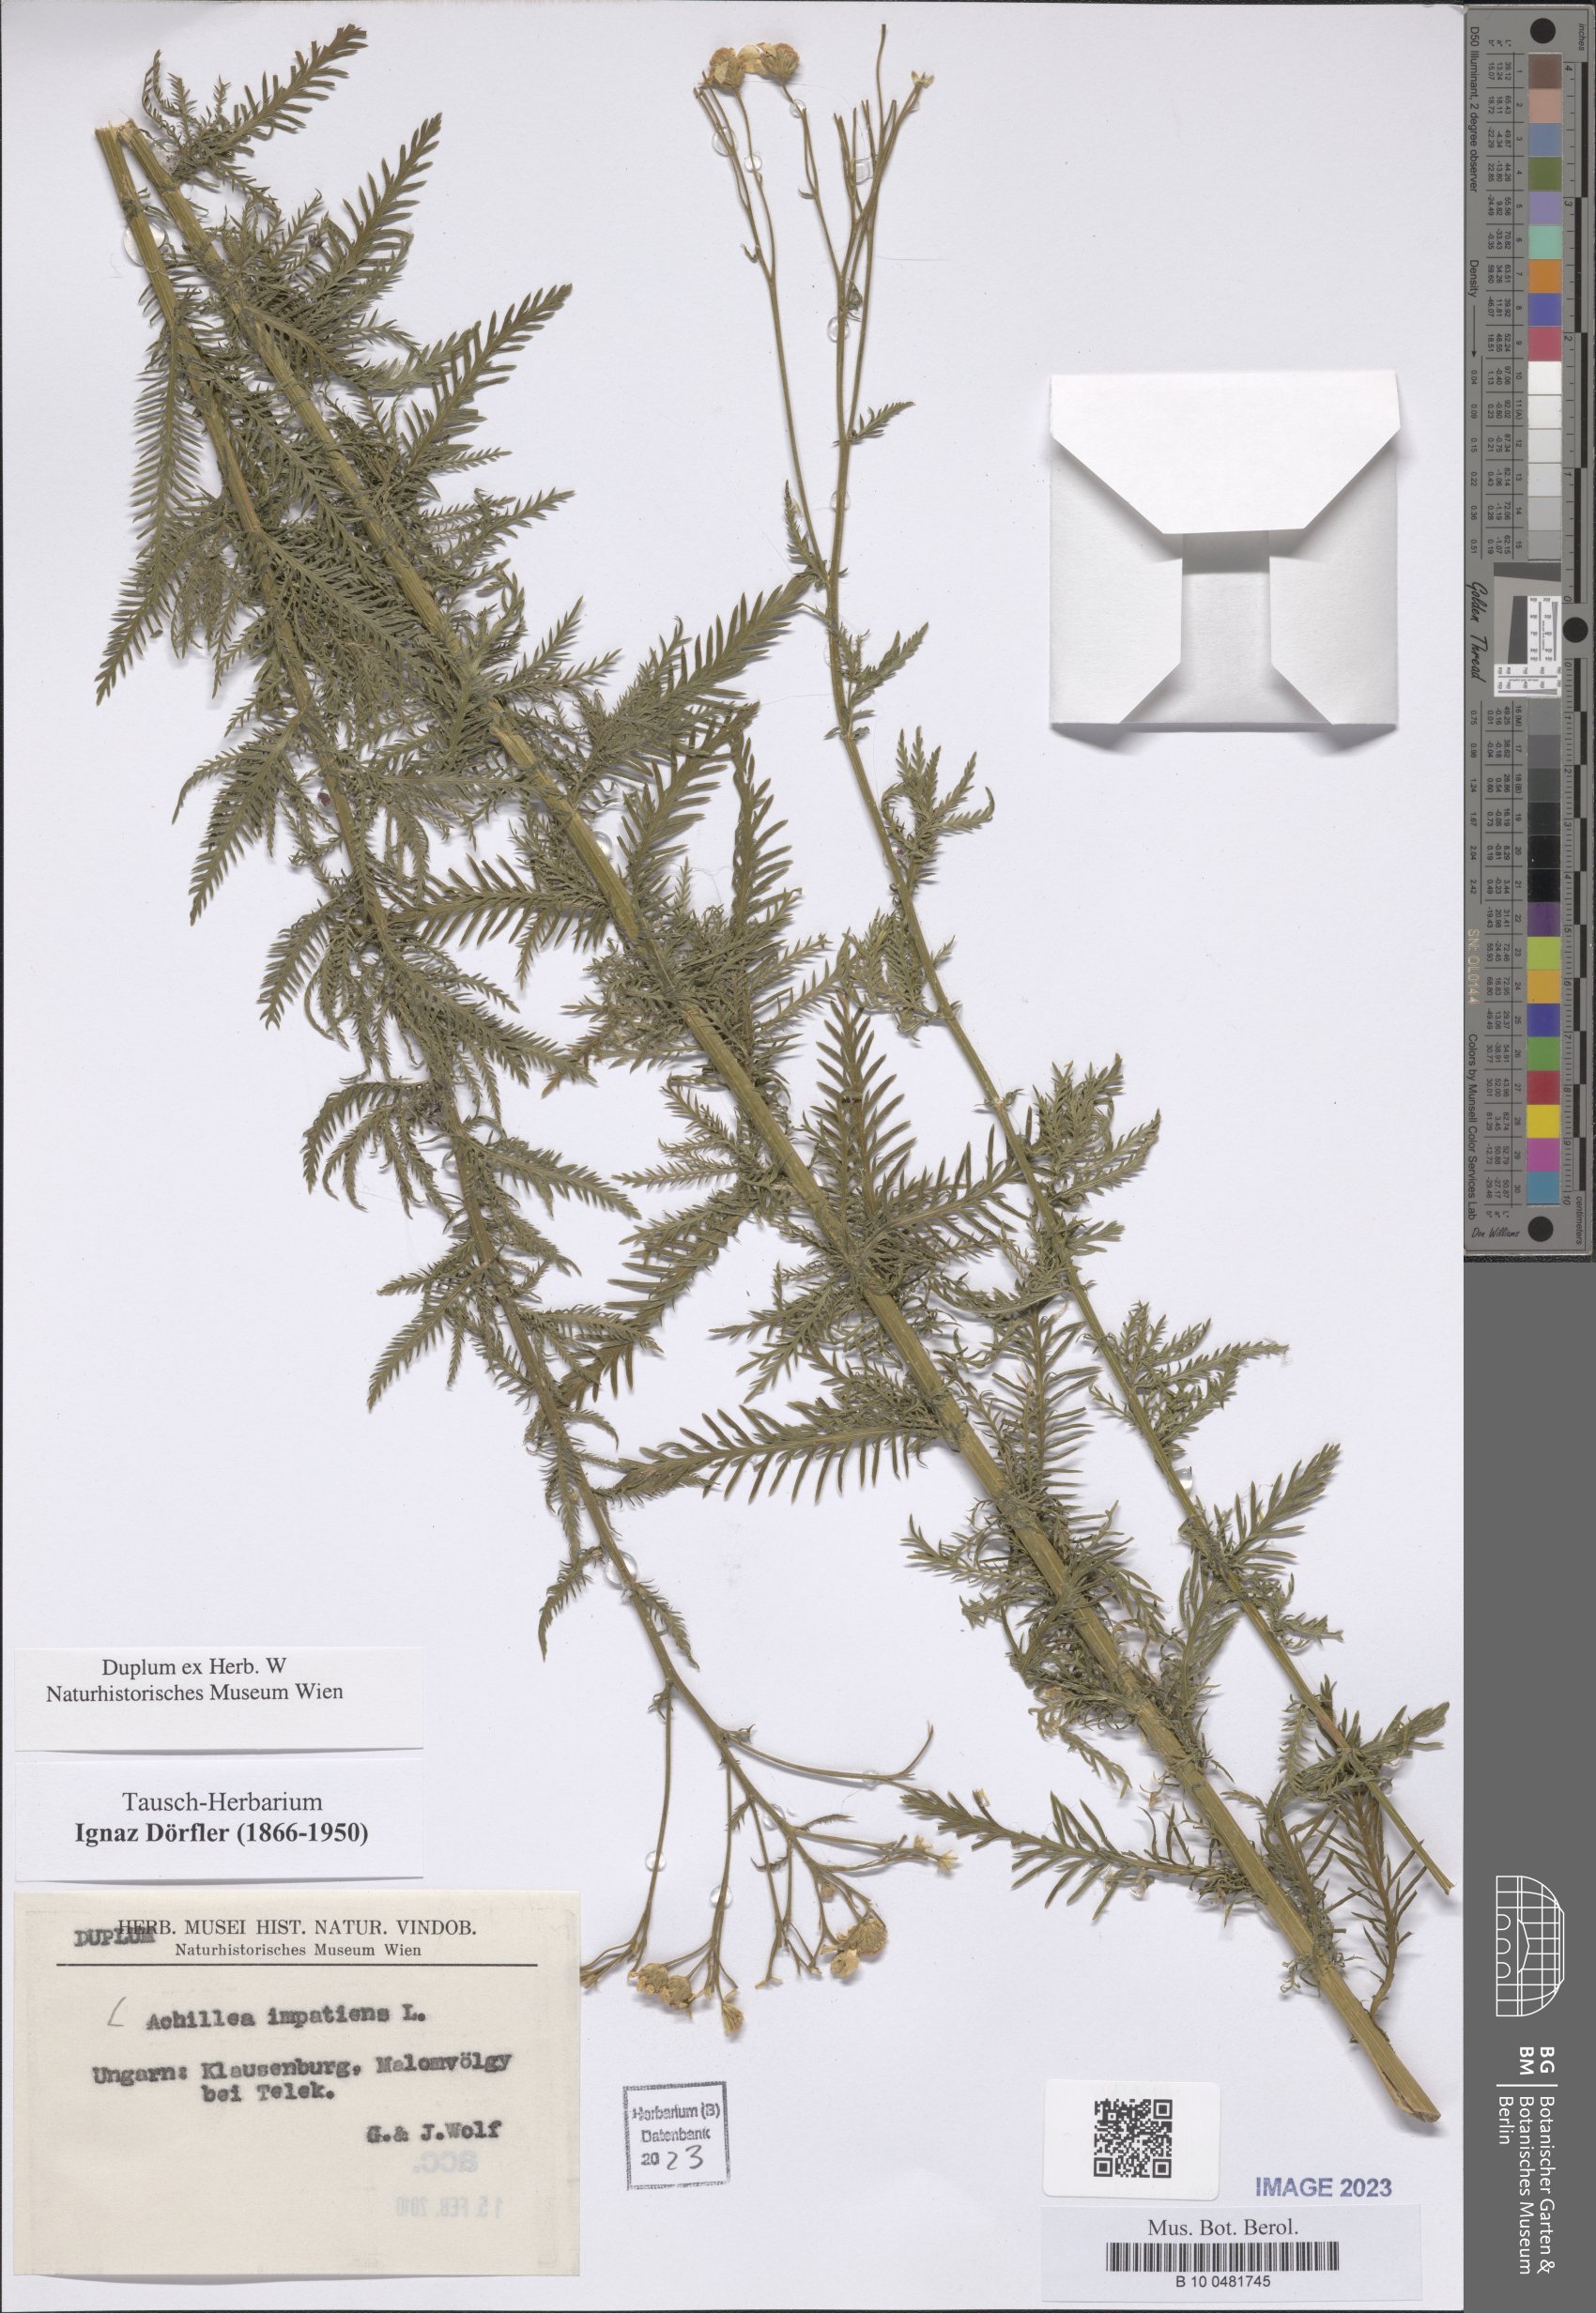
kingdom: Plantae
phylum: Tracheophyta
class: Magnoliopsida
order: Asterales
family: Asteraceae
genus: Achillea
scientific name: Achillea impatiens
